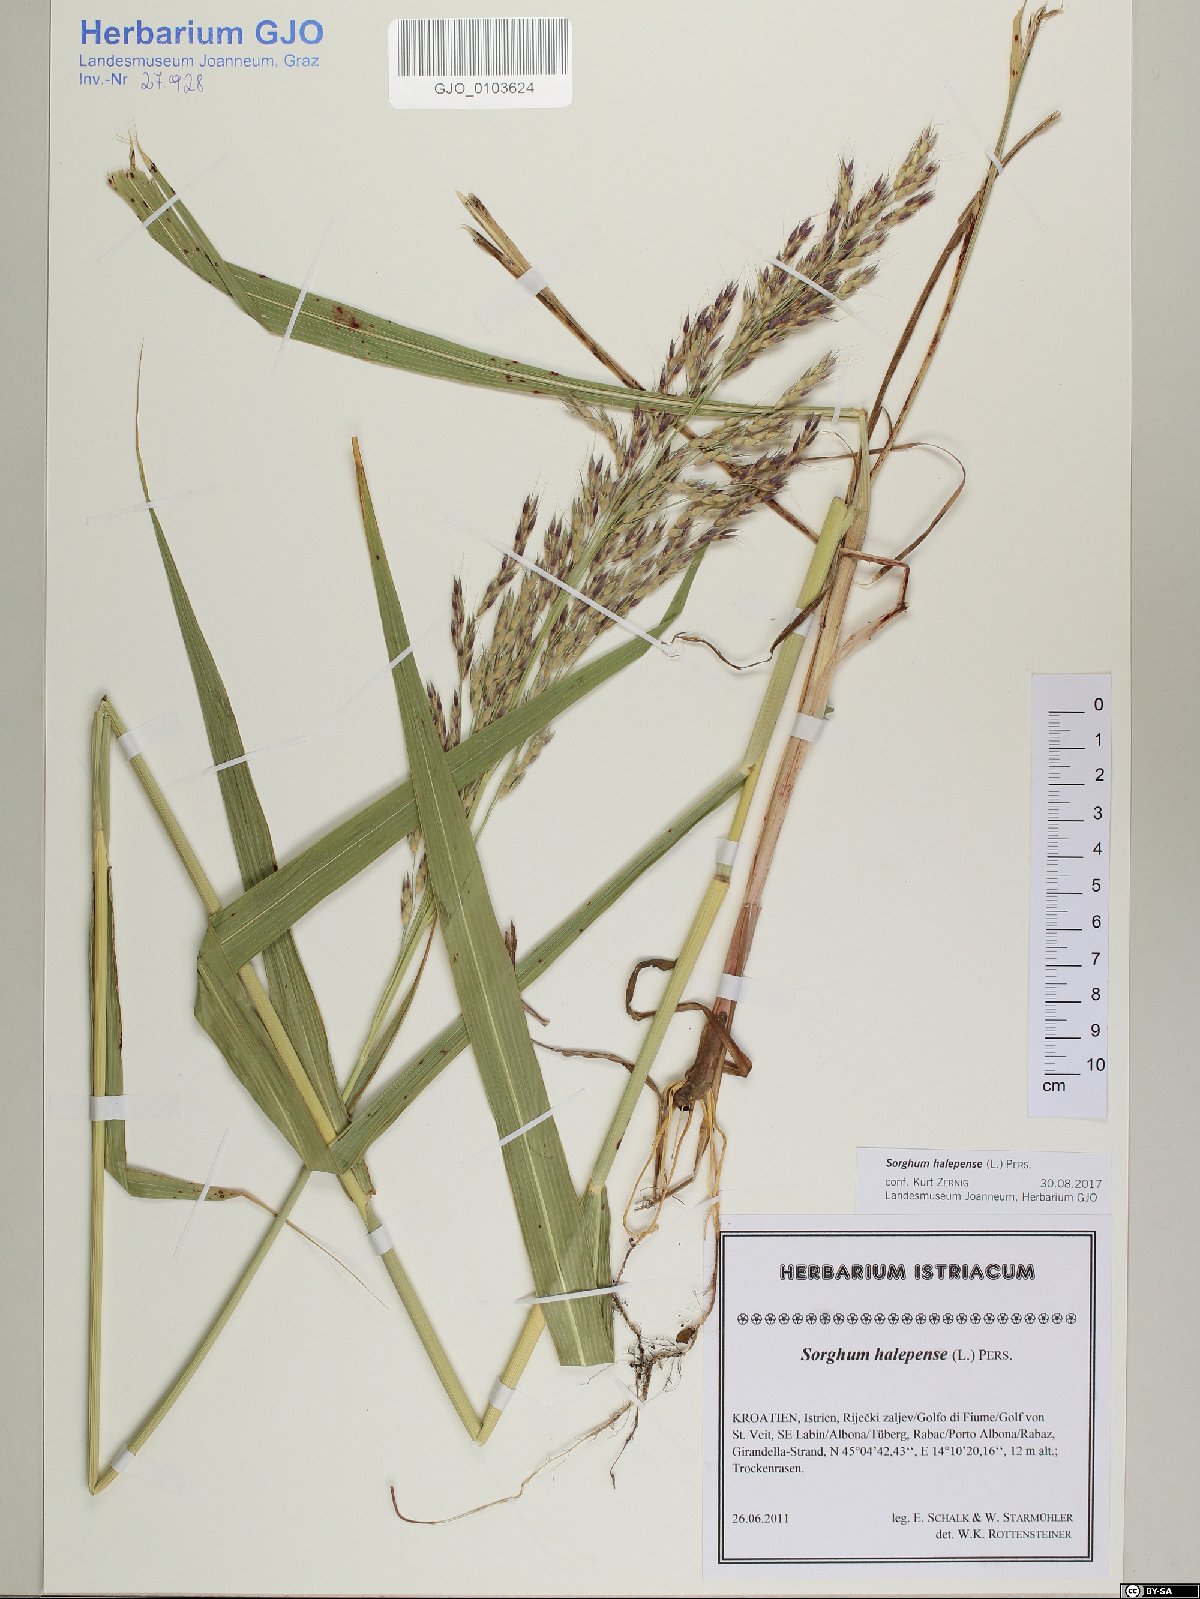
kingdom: Plantae
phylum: Tracheophyta
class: Liliopsida
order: Poales
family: Poaceae
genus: Sorghum
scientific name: Sorghum halepense
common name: Johnson-grass
